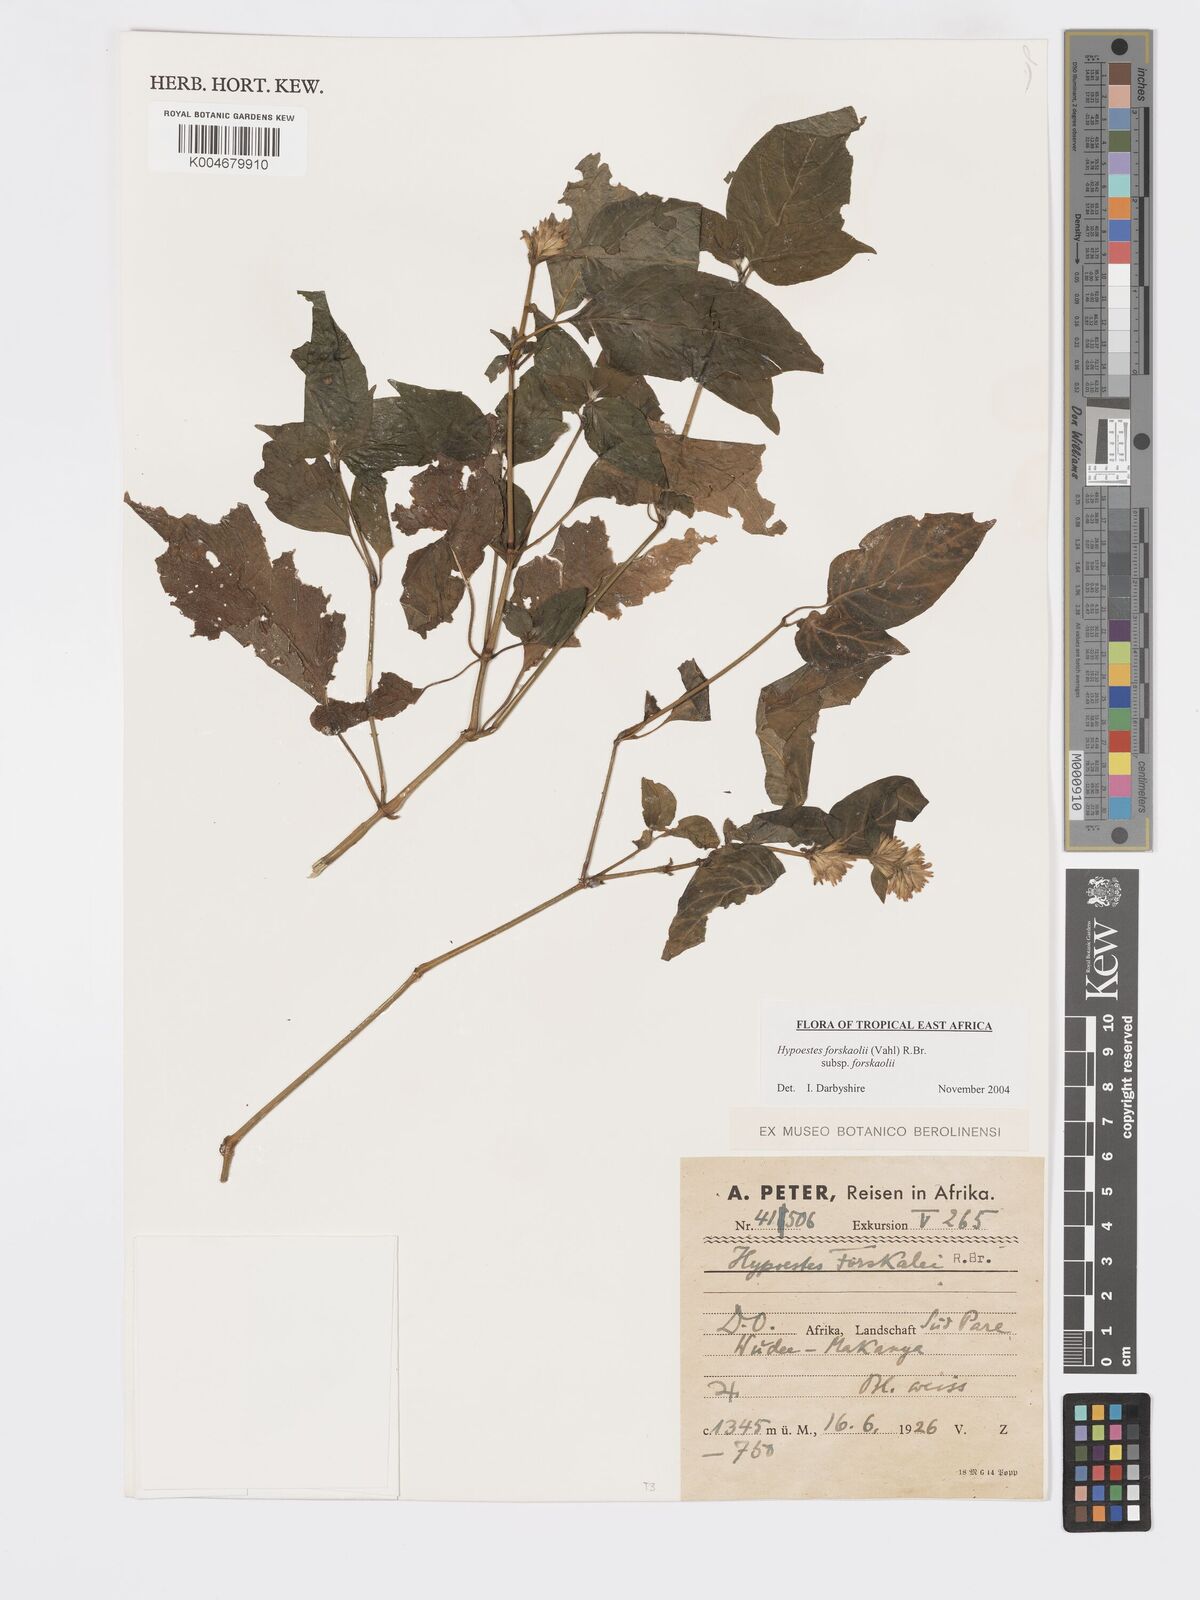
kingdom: Plantae
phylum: Tracheophyta
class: Magnoliopsida
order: Lamiales
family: Acanthaceae
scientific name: Acanthaceae
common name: Acanthaceae
